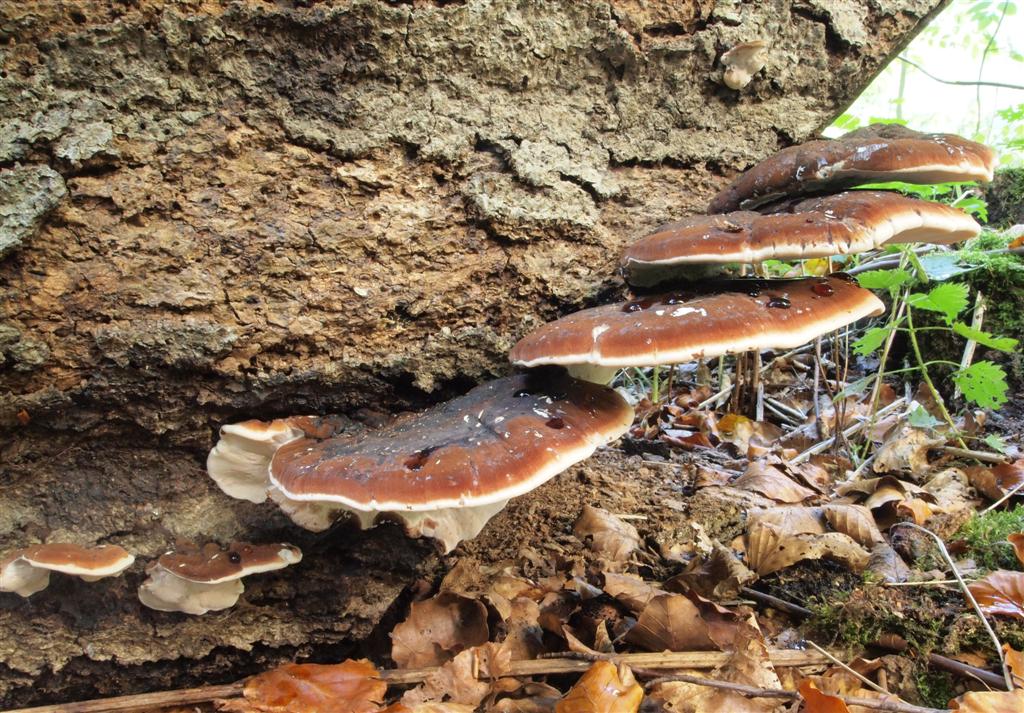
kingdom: Fungi
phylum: Basidiomycota
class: Agaricomycetes
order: Polyporales
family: Ischnodermataceae
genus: Ischnoderma
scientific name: Ischnoderma resinosum
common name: løv-tjæreporesvamp
